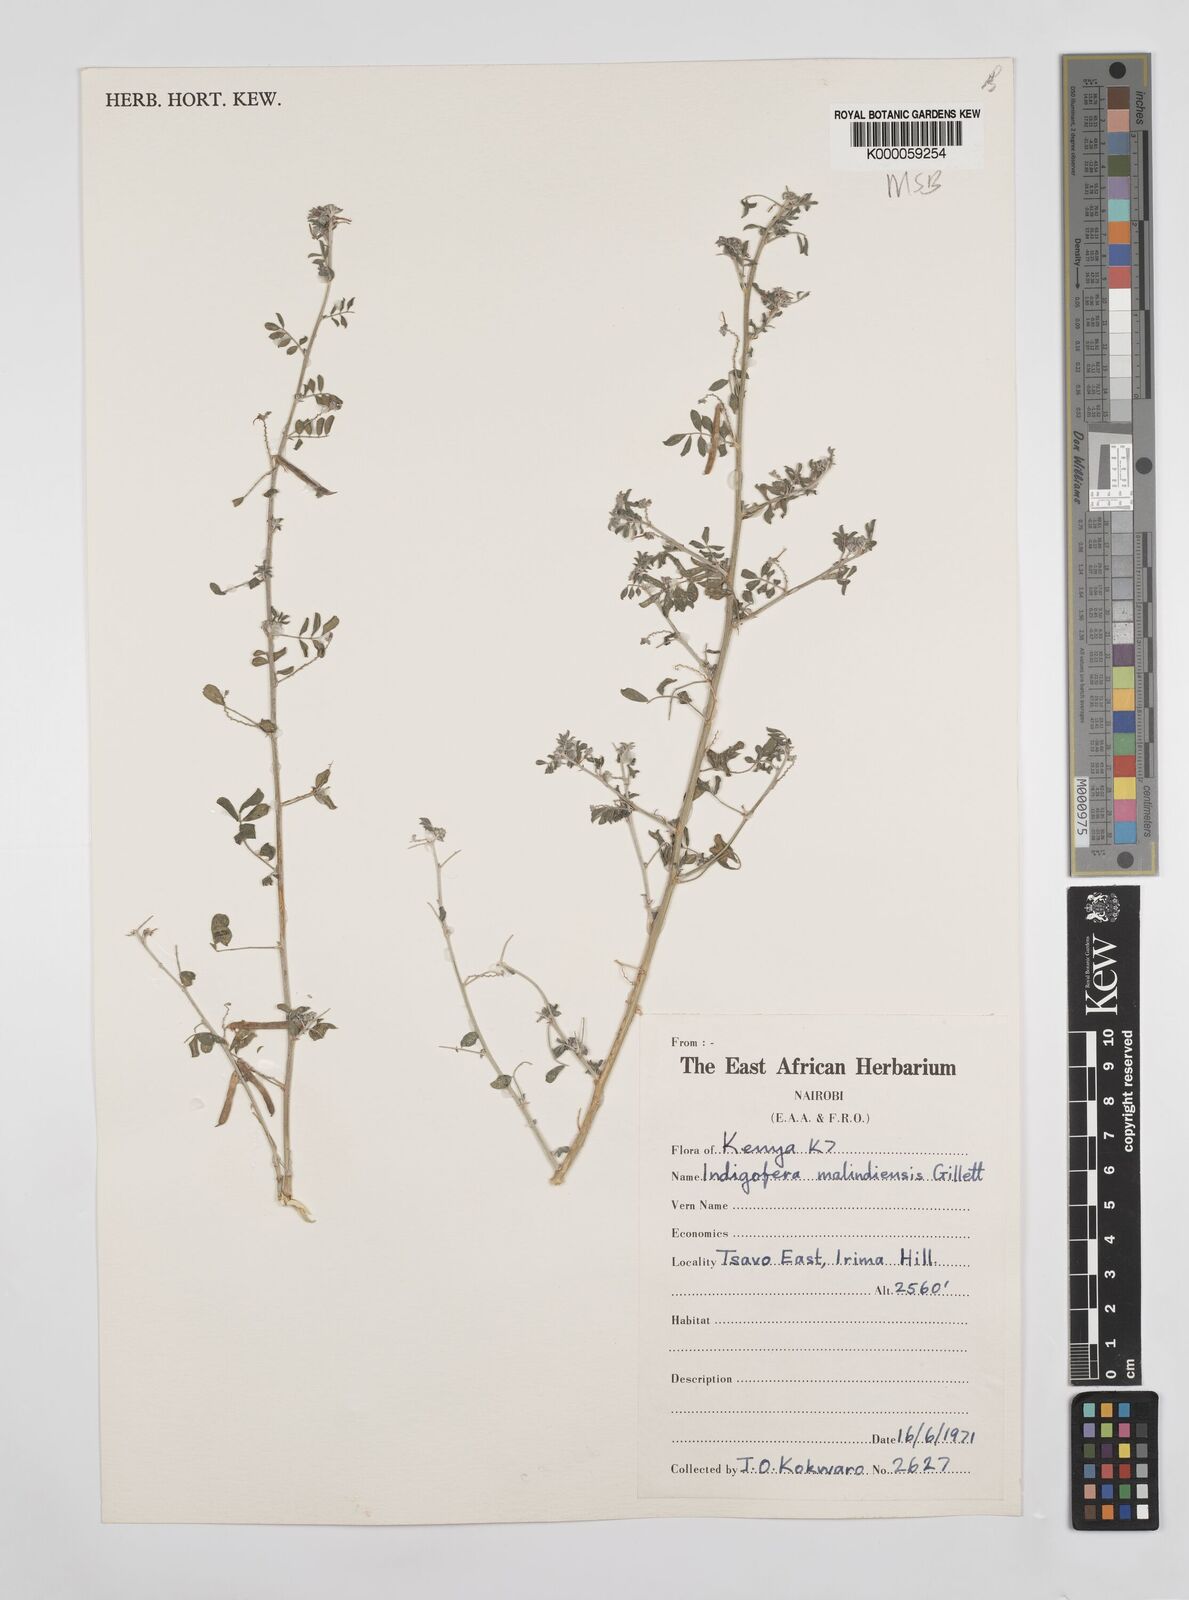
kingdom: Plantae
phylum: Tracheophyta
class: Magnoliopsida
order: Fabales
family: Fabaceae
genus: Indigofera
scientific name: Indigofera malindiensis
